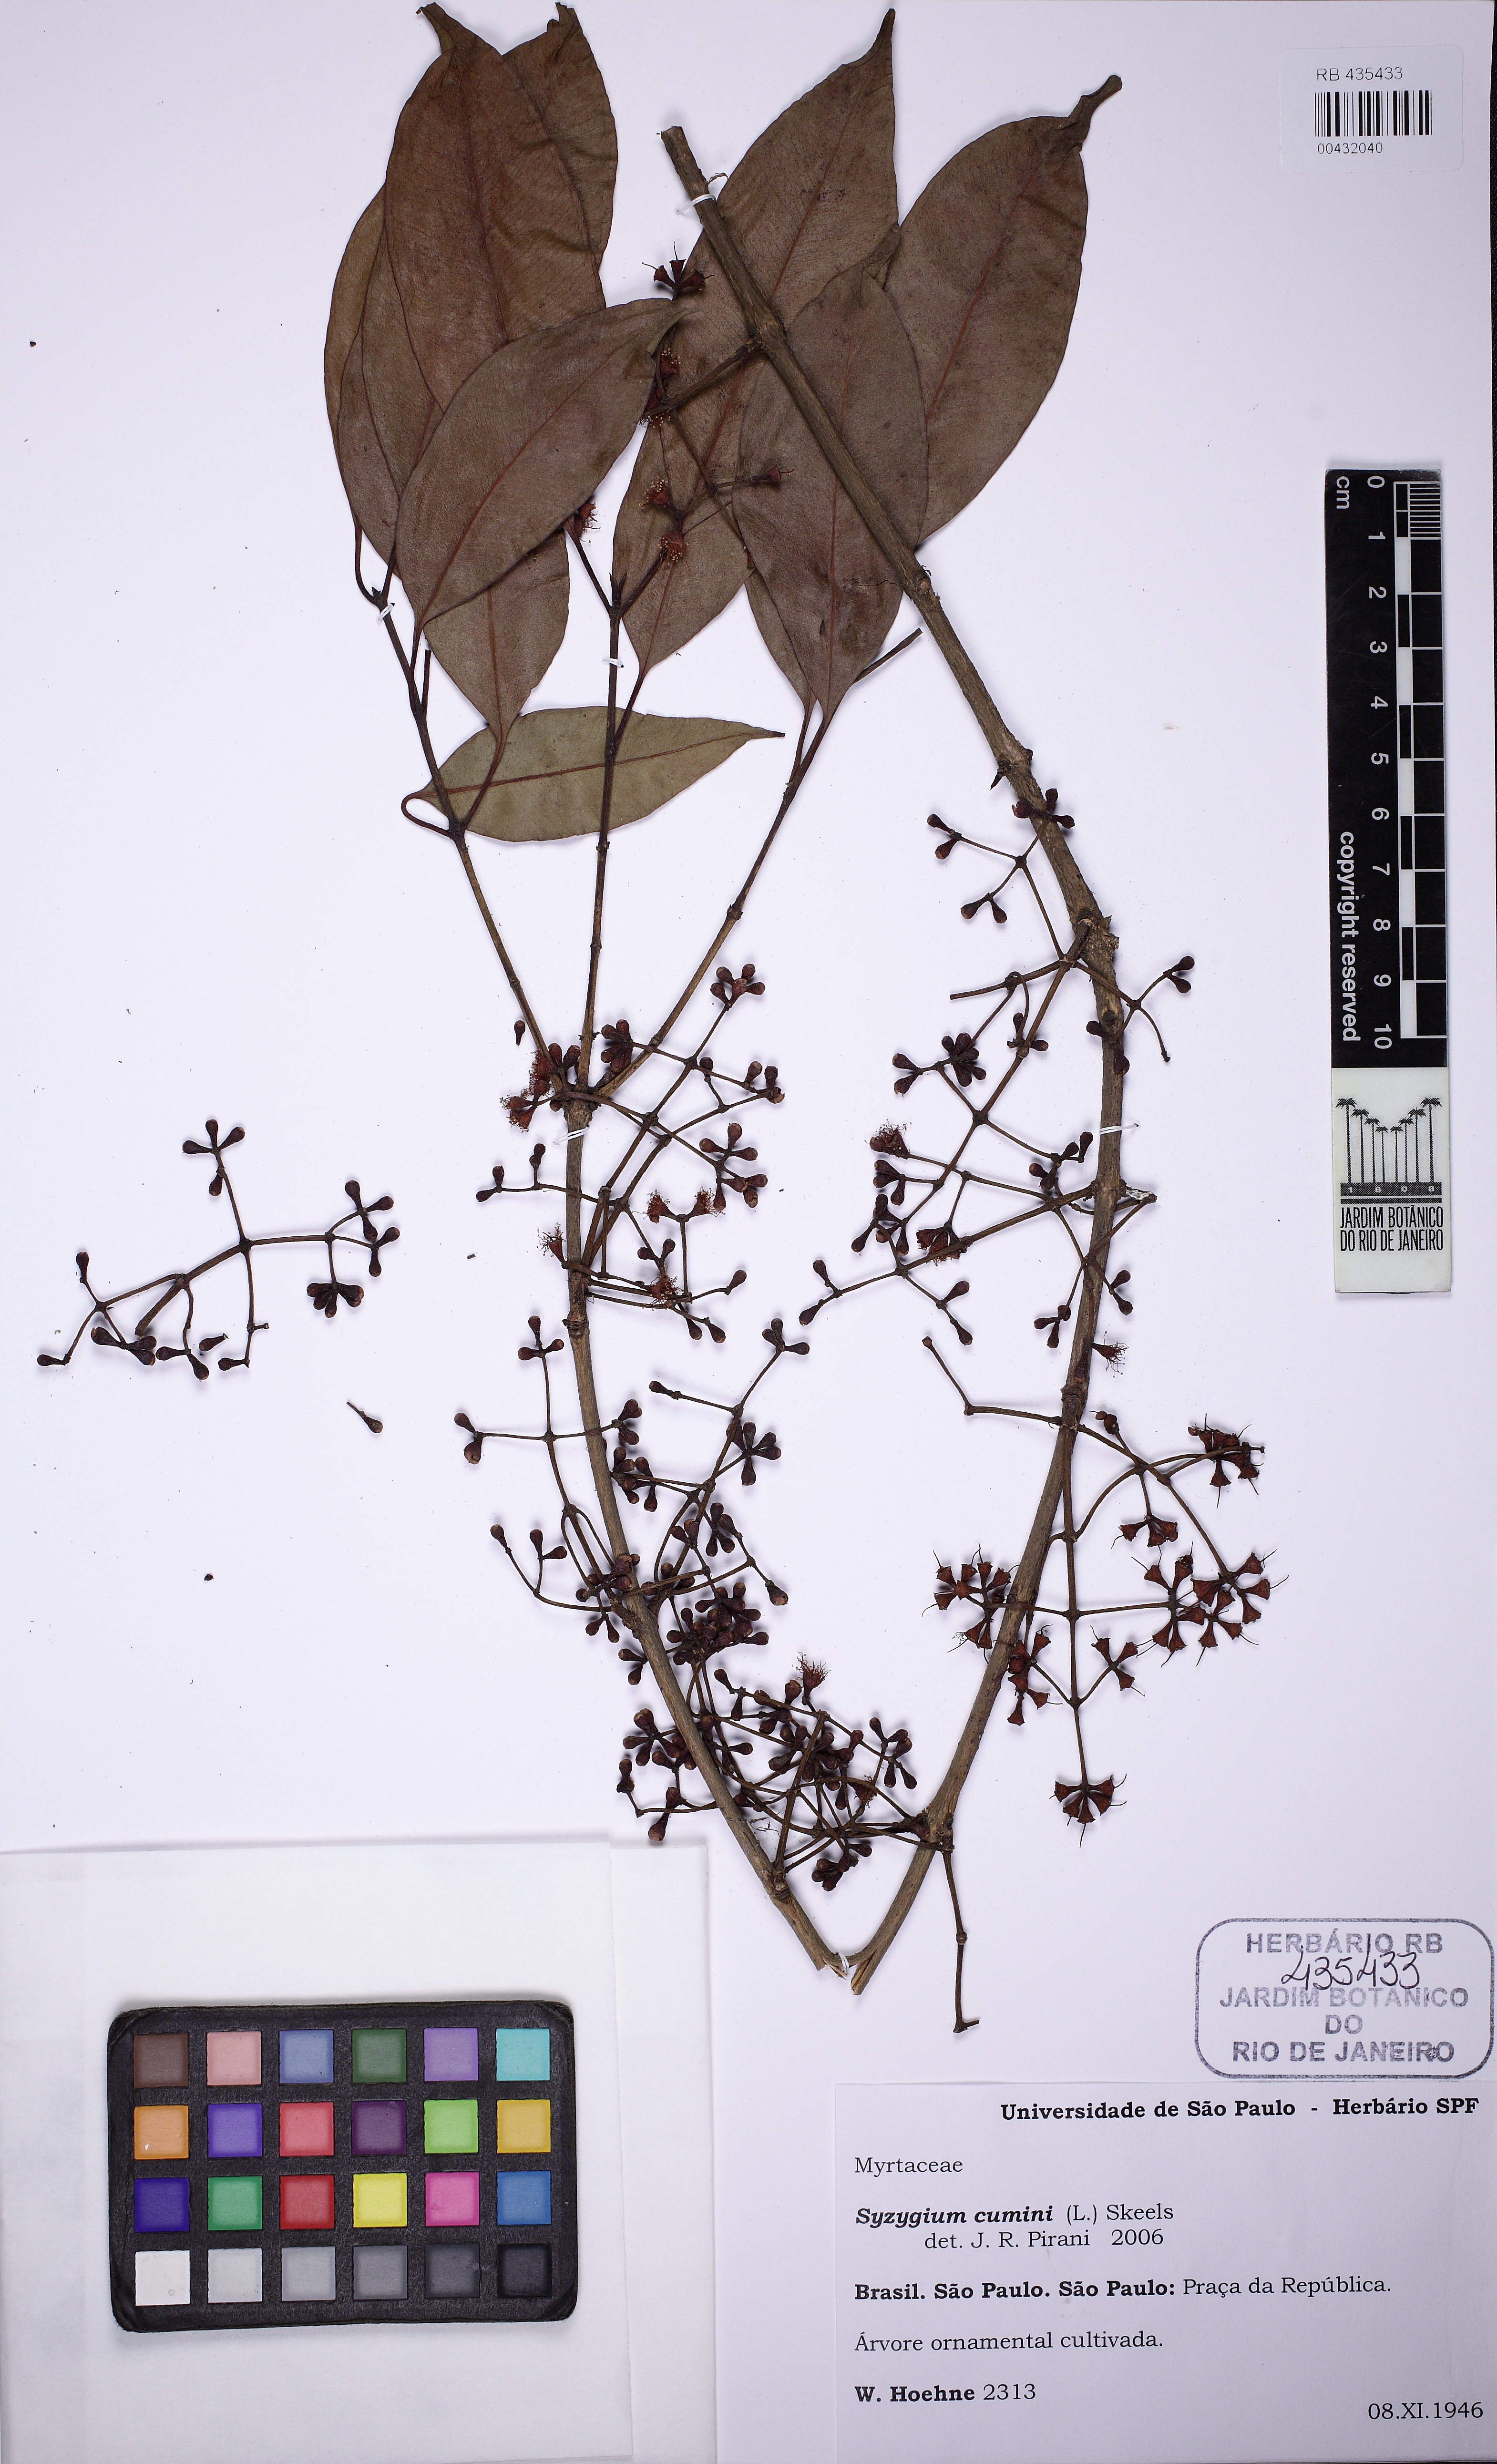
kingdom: Plantae
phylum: Tracheophyta
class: Magnoliopsida
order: Myrtales
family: Myrtaceae
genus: Syzygium
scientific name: Syzygium cumini
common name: Java plum
